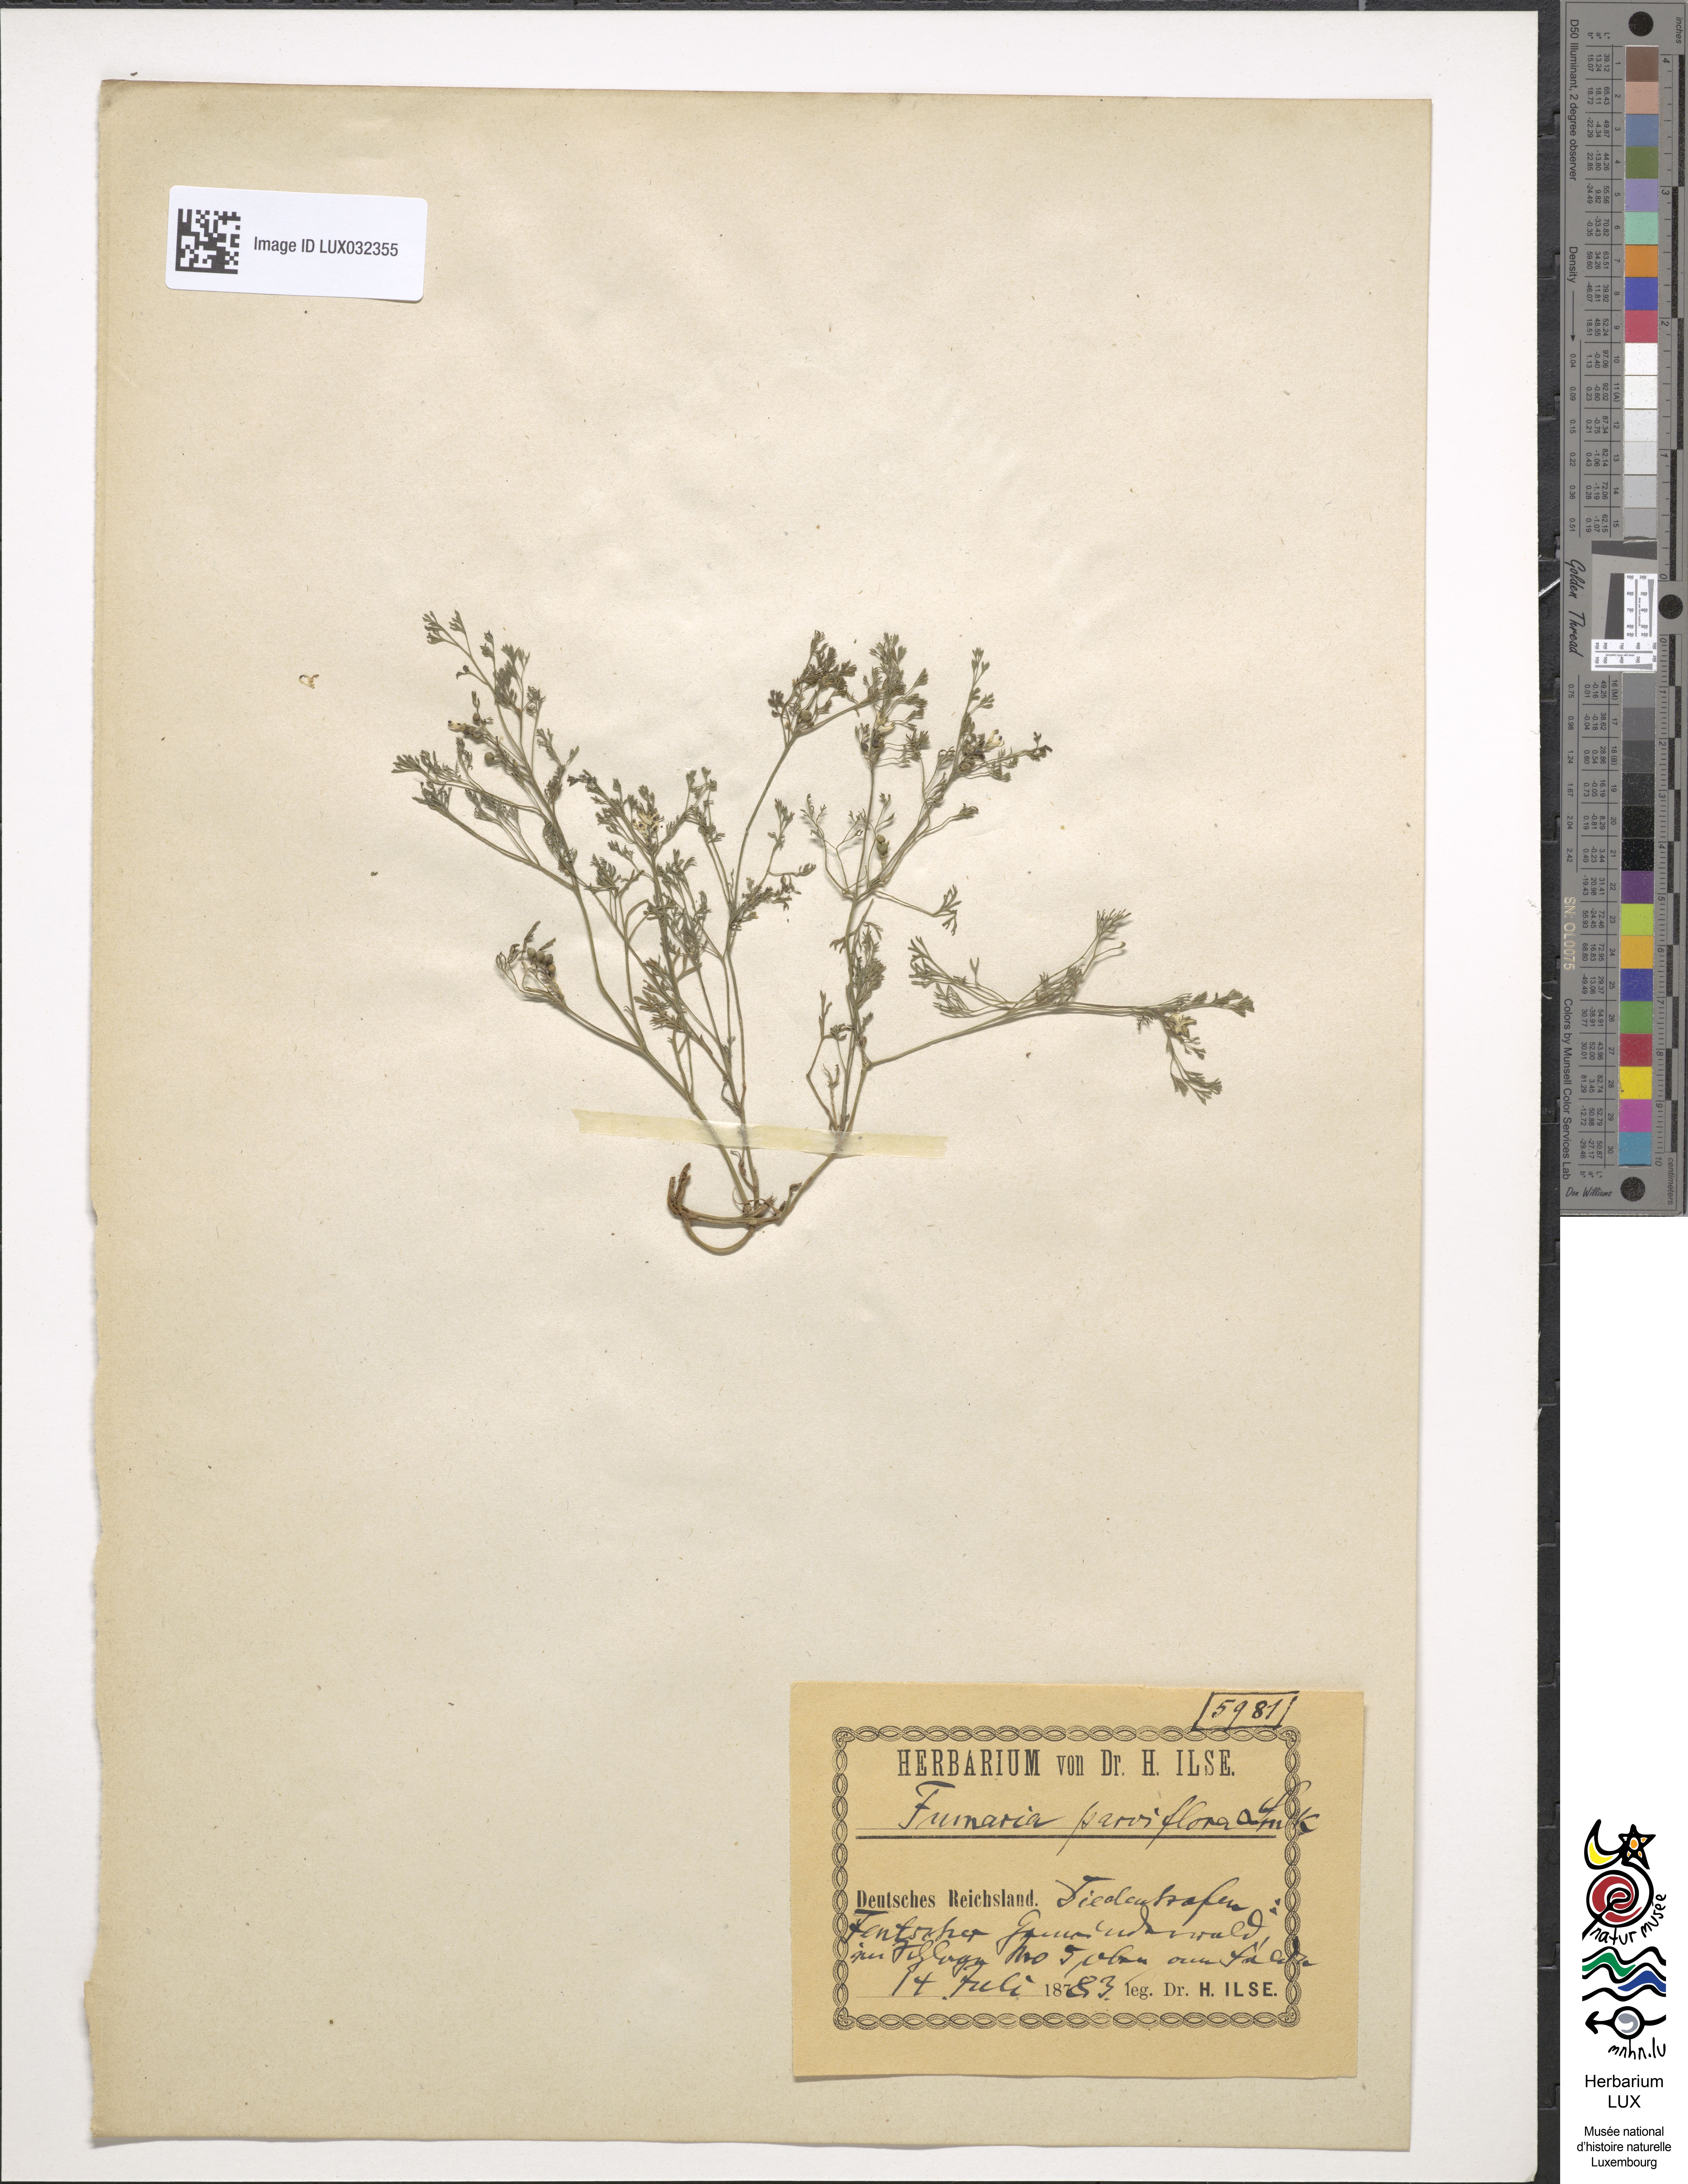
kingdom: Plantae
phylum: Tracheophyta
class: Magnoliopsida
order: Ranunculales
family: Papaveraceae
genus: Fumaria
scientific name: Fumaria parviflora
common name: Fine-leaved fumitory
